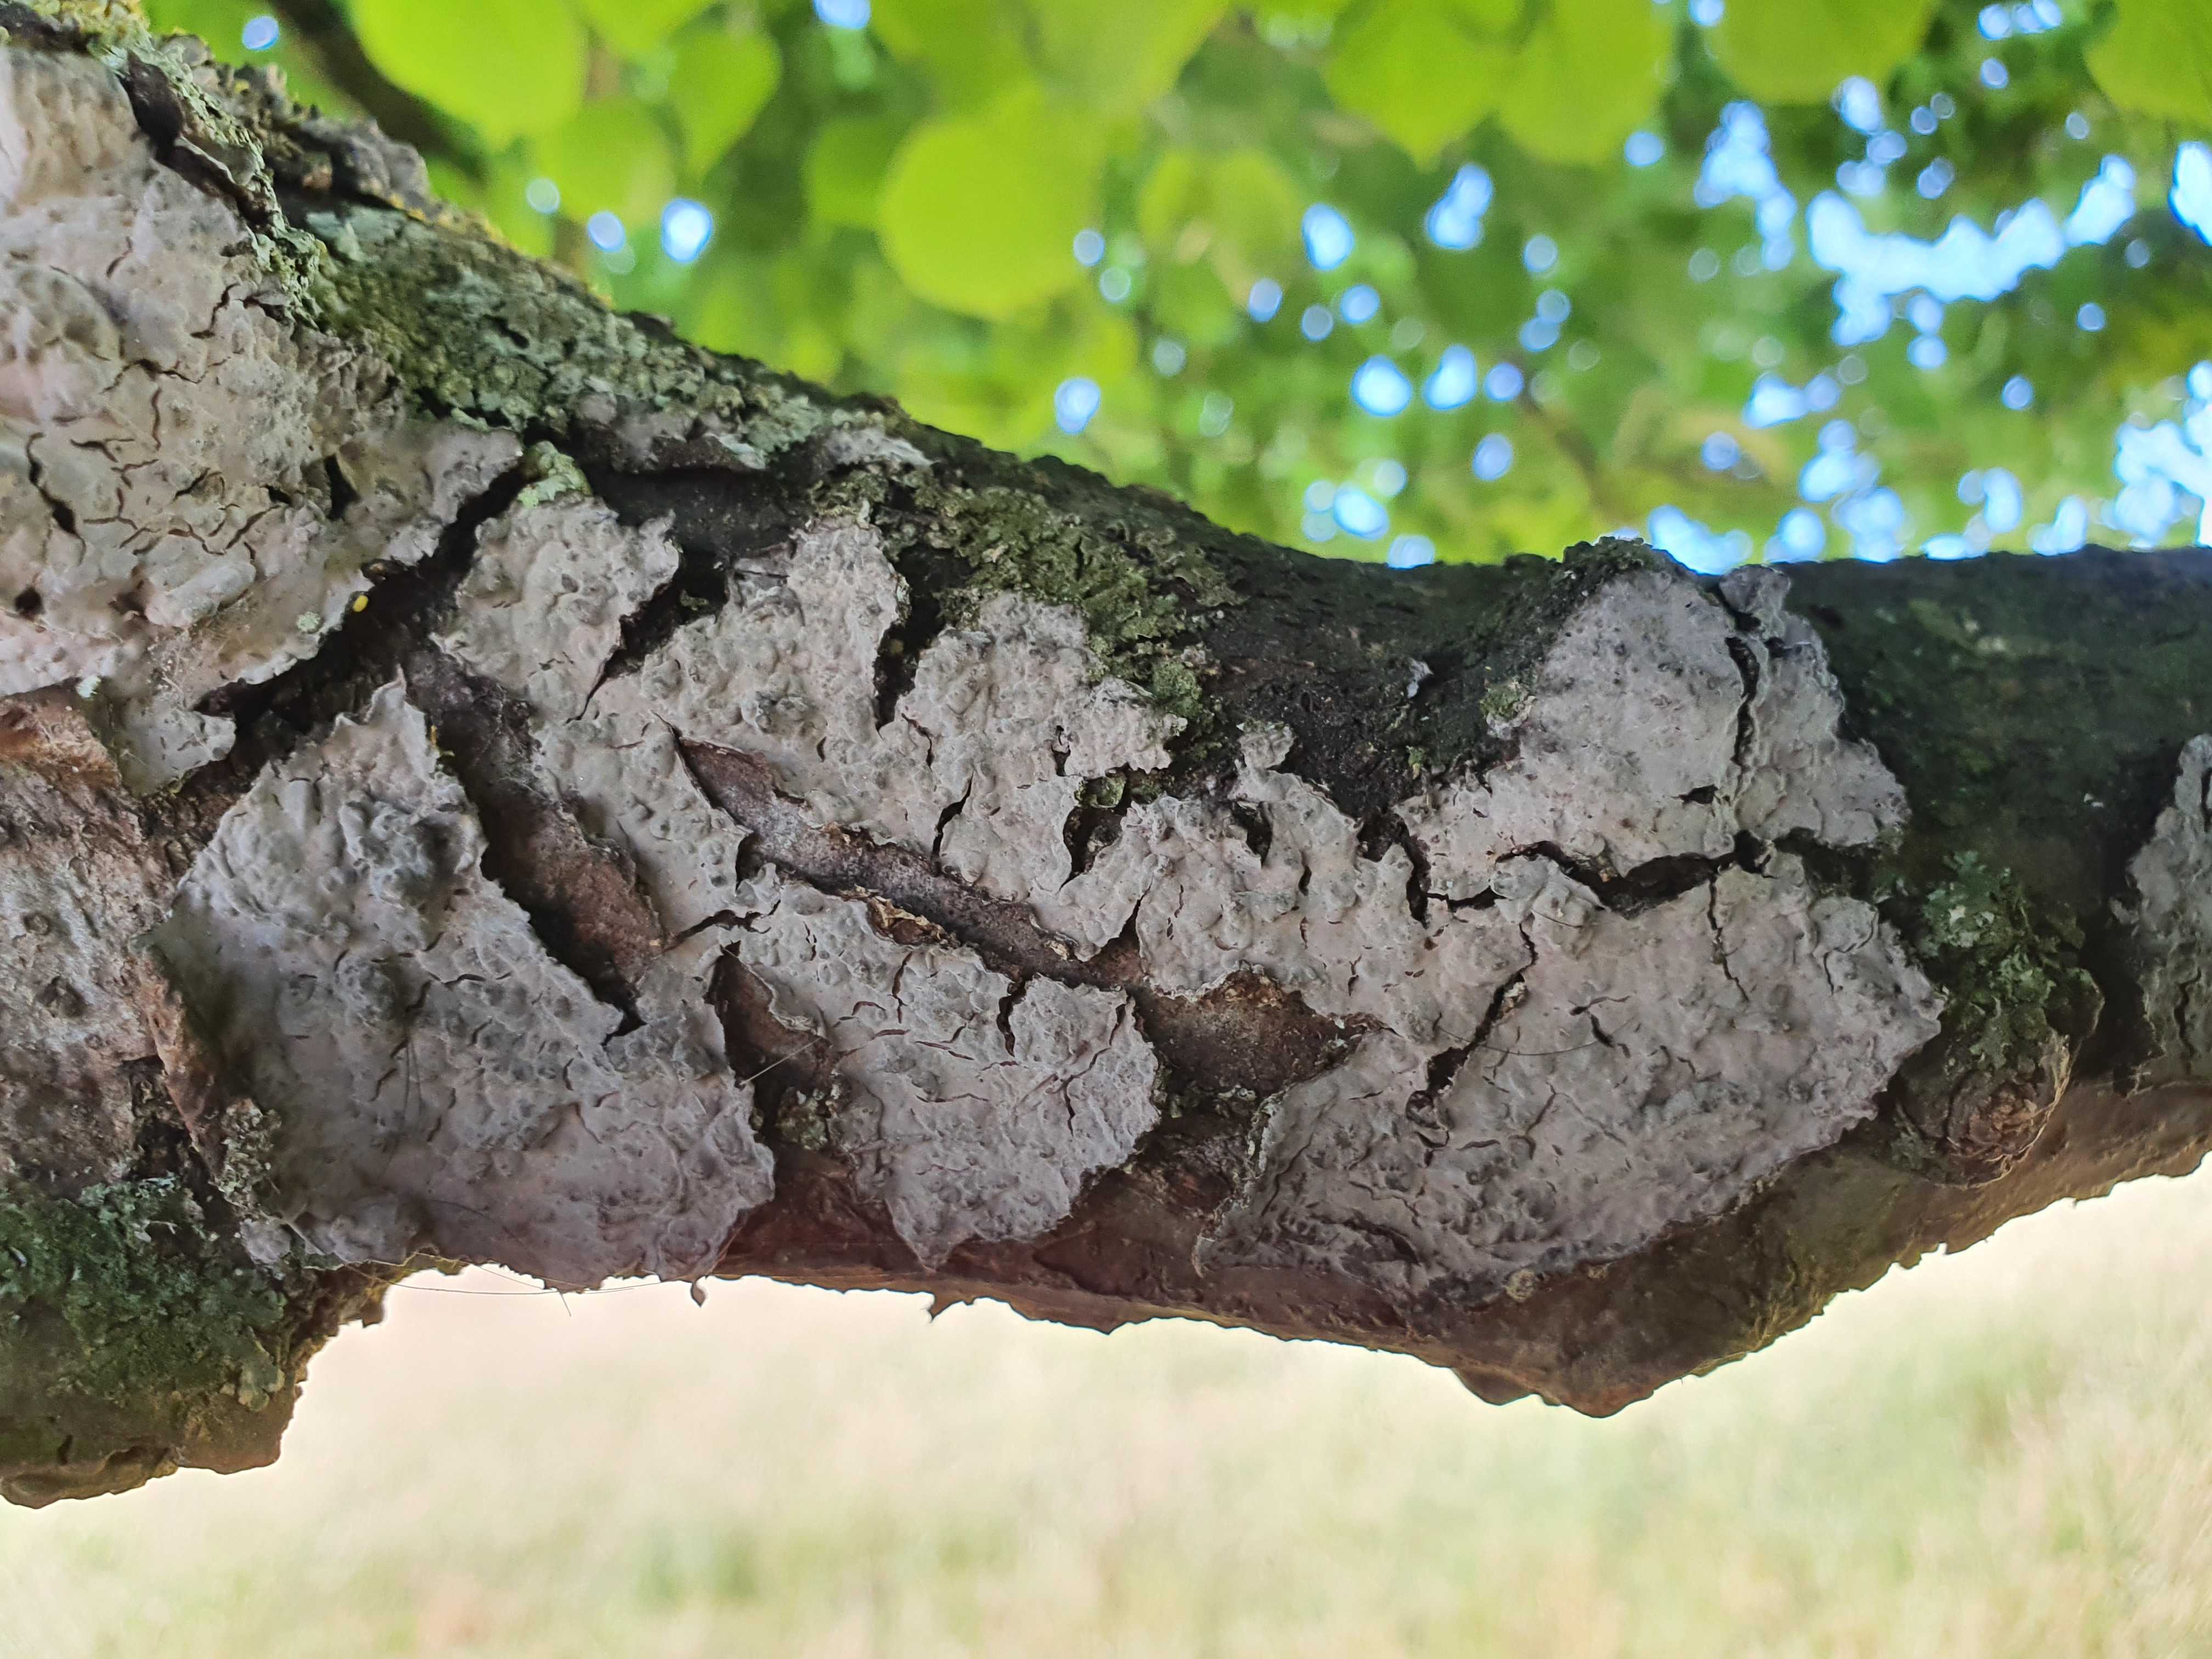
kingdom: Fungi
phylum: Basidiomycota
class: Agaricomycetes
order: Russulales
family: Peniophoraceae
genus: Peniophora
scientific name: Peniophora rufomarginata
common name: linde-voksskind
